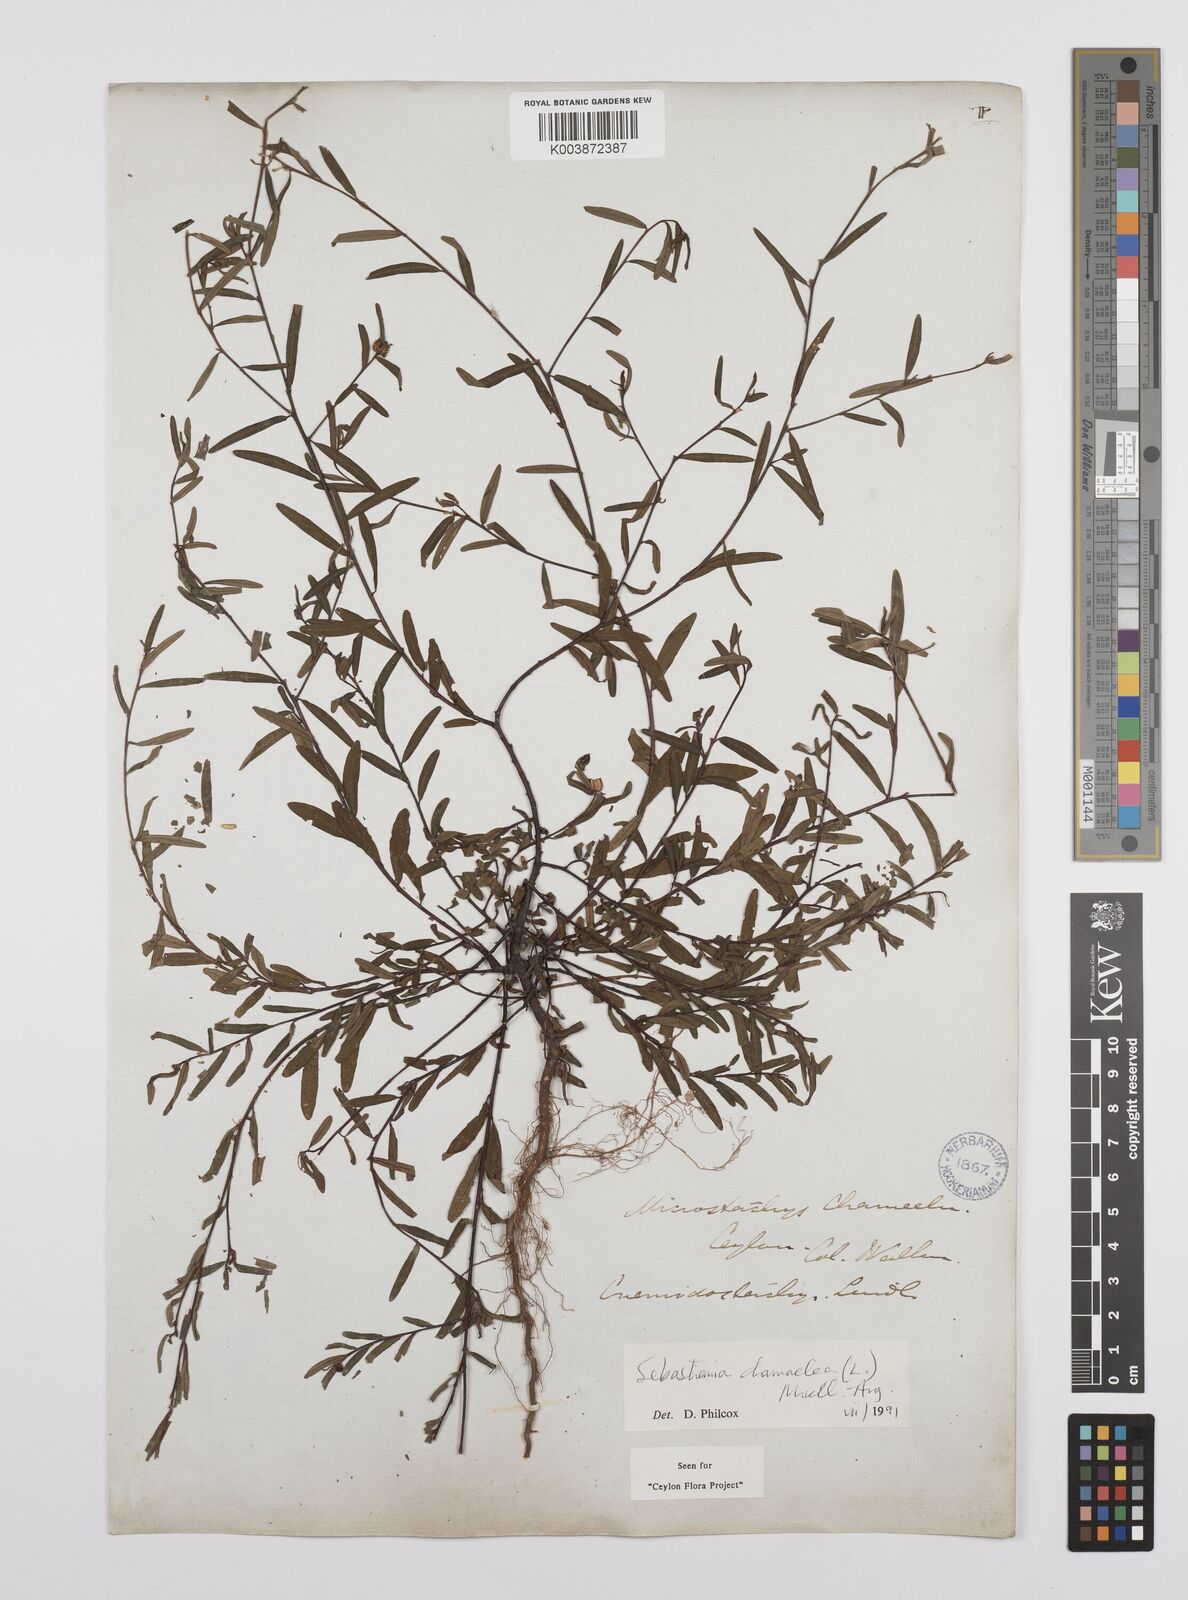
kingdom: Plantae
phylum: Tracheophyta
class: Magnoliopsida
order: Malpighiales
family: Euphorbiaceae
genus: Microstachys
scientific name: Microstachys chamaelea
